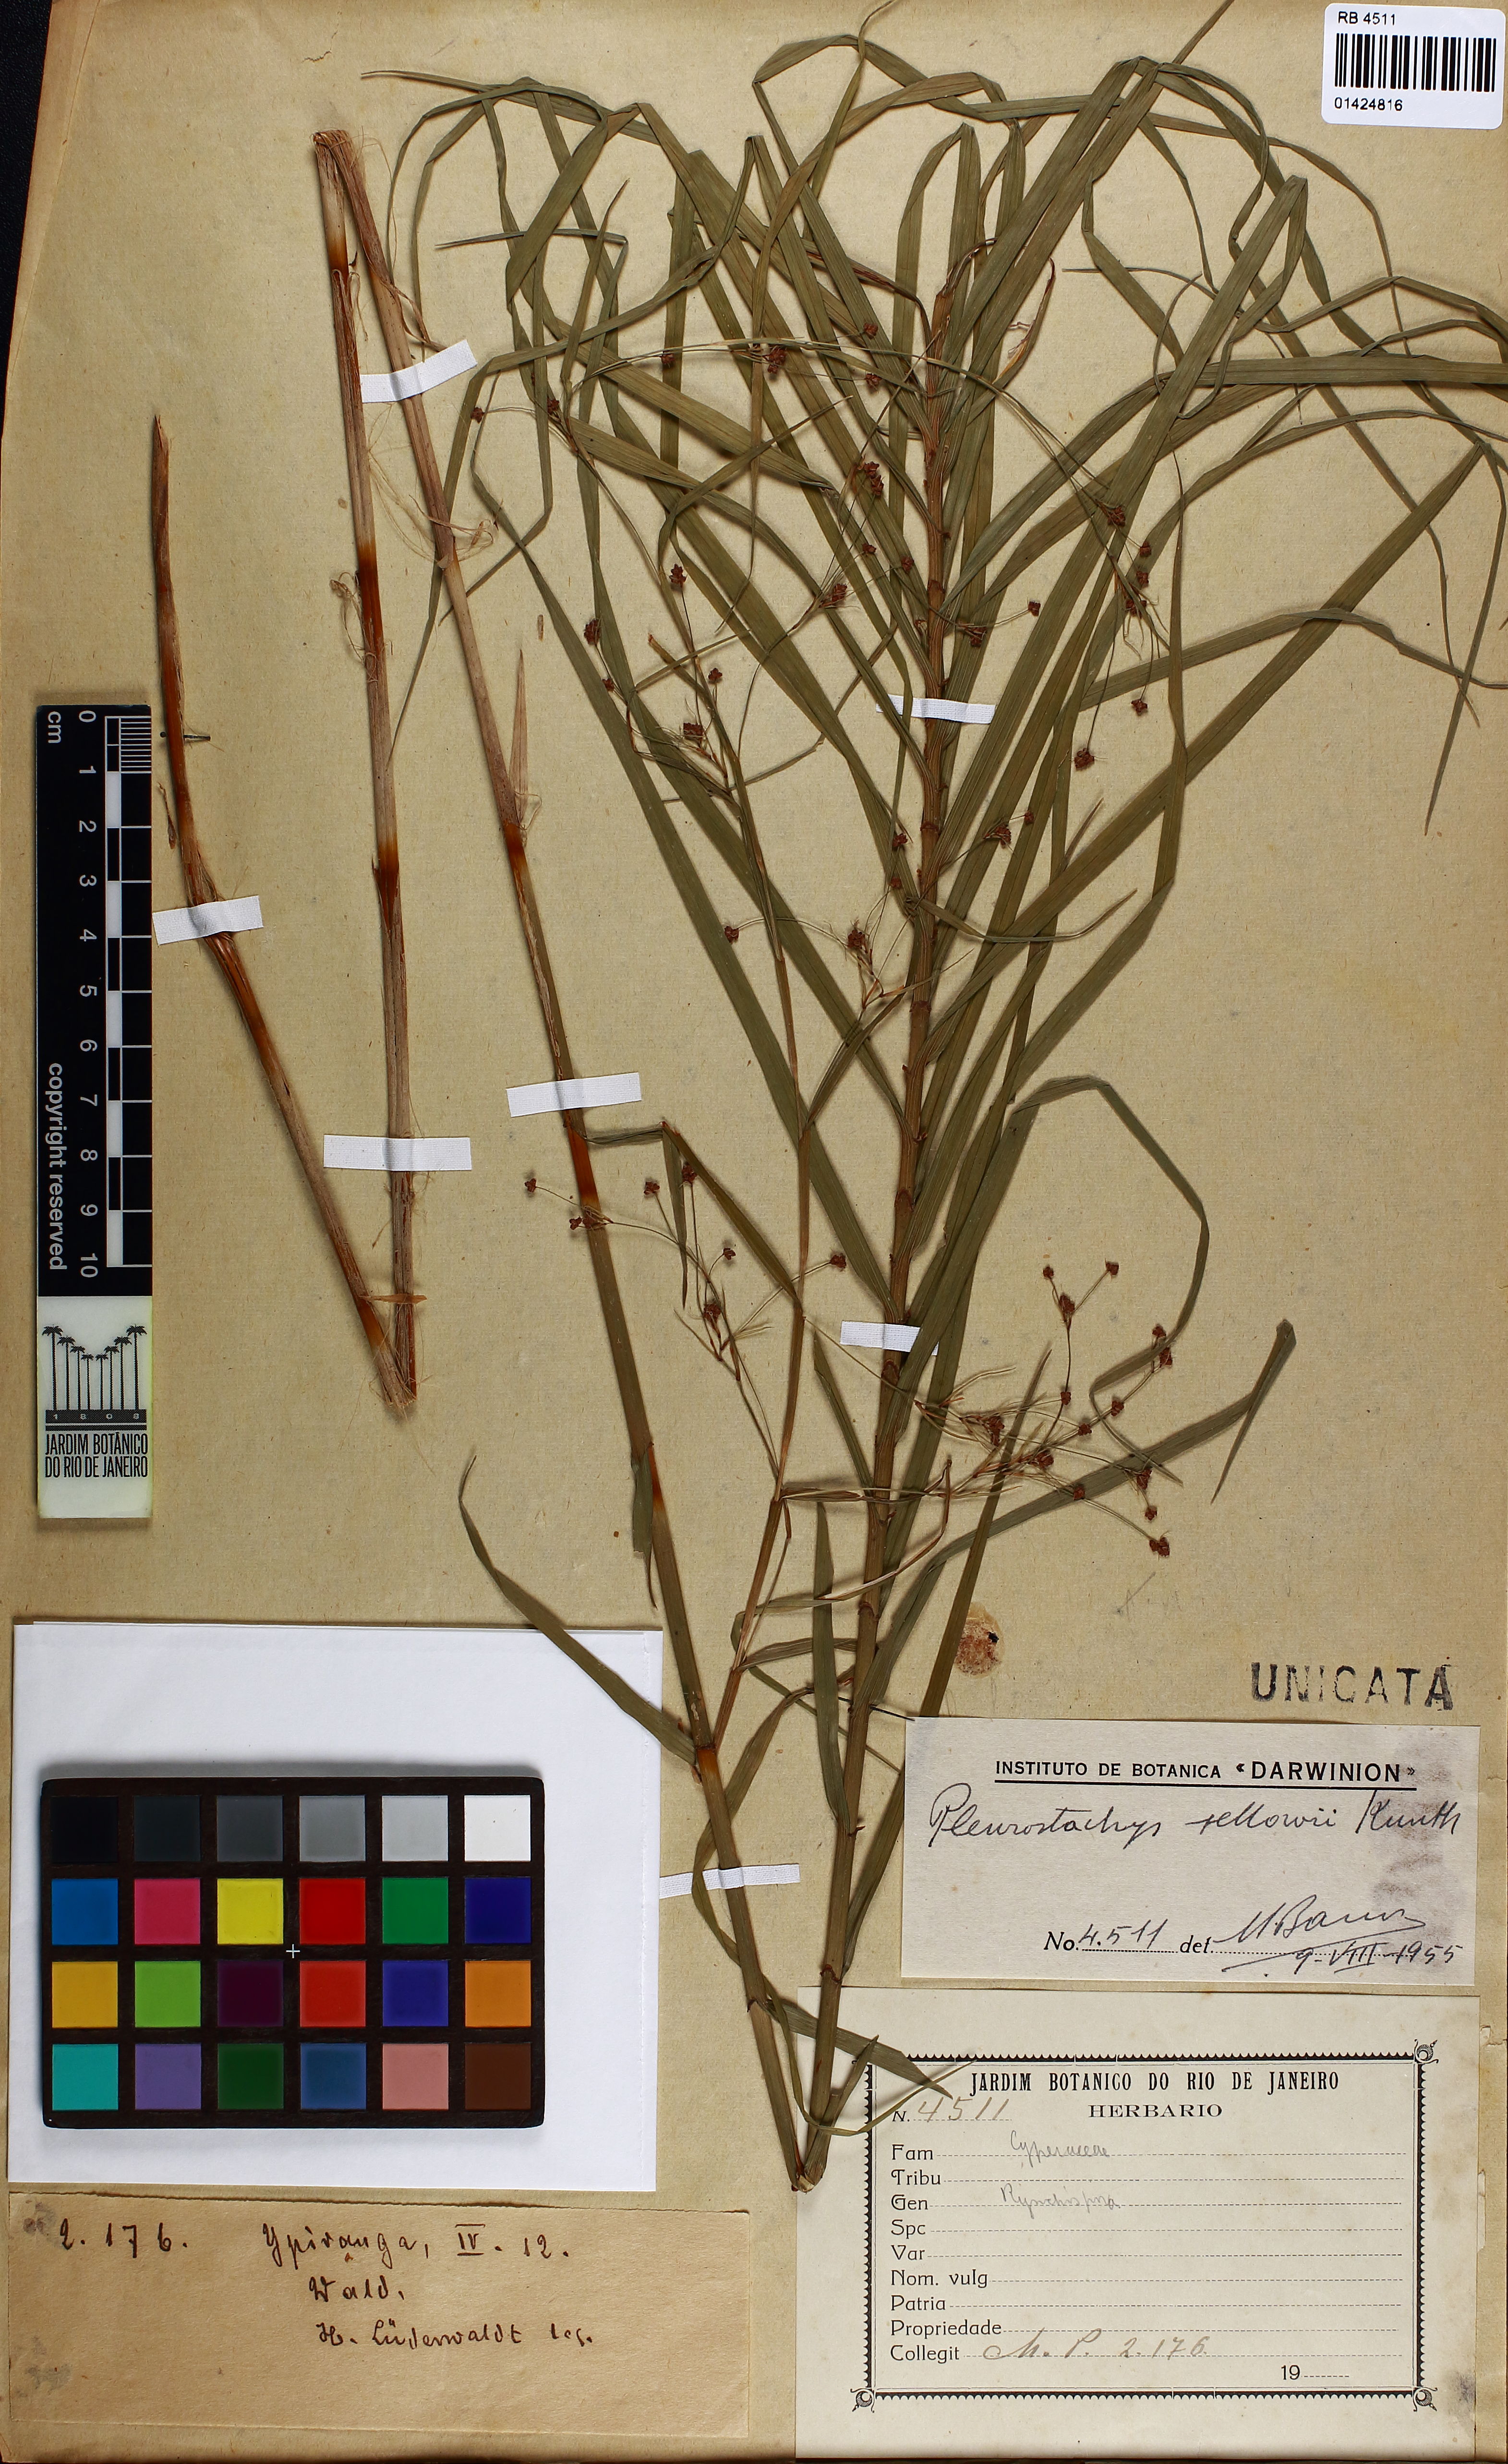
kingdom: Plantae
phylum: Tracheophyta
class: Liliopsida
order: Poales
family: Cyperaceae
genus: Rhynchospora
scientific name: Rhynchospora foliosa
